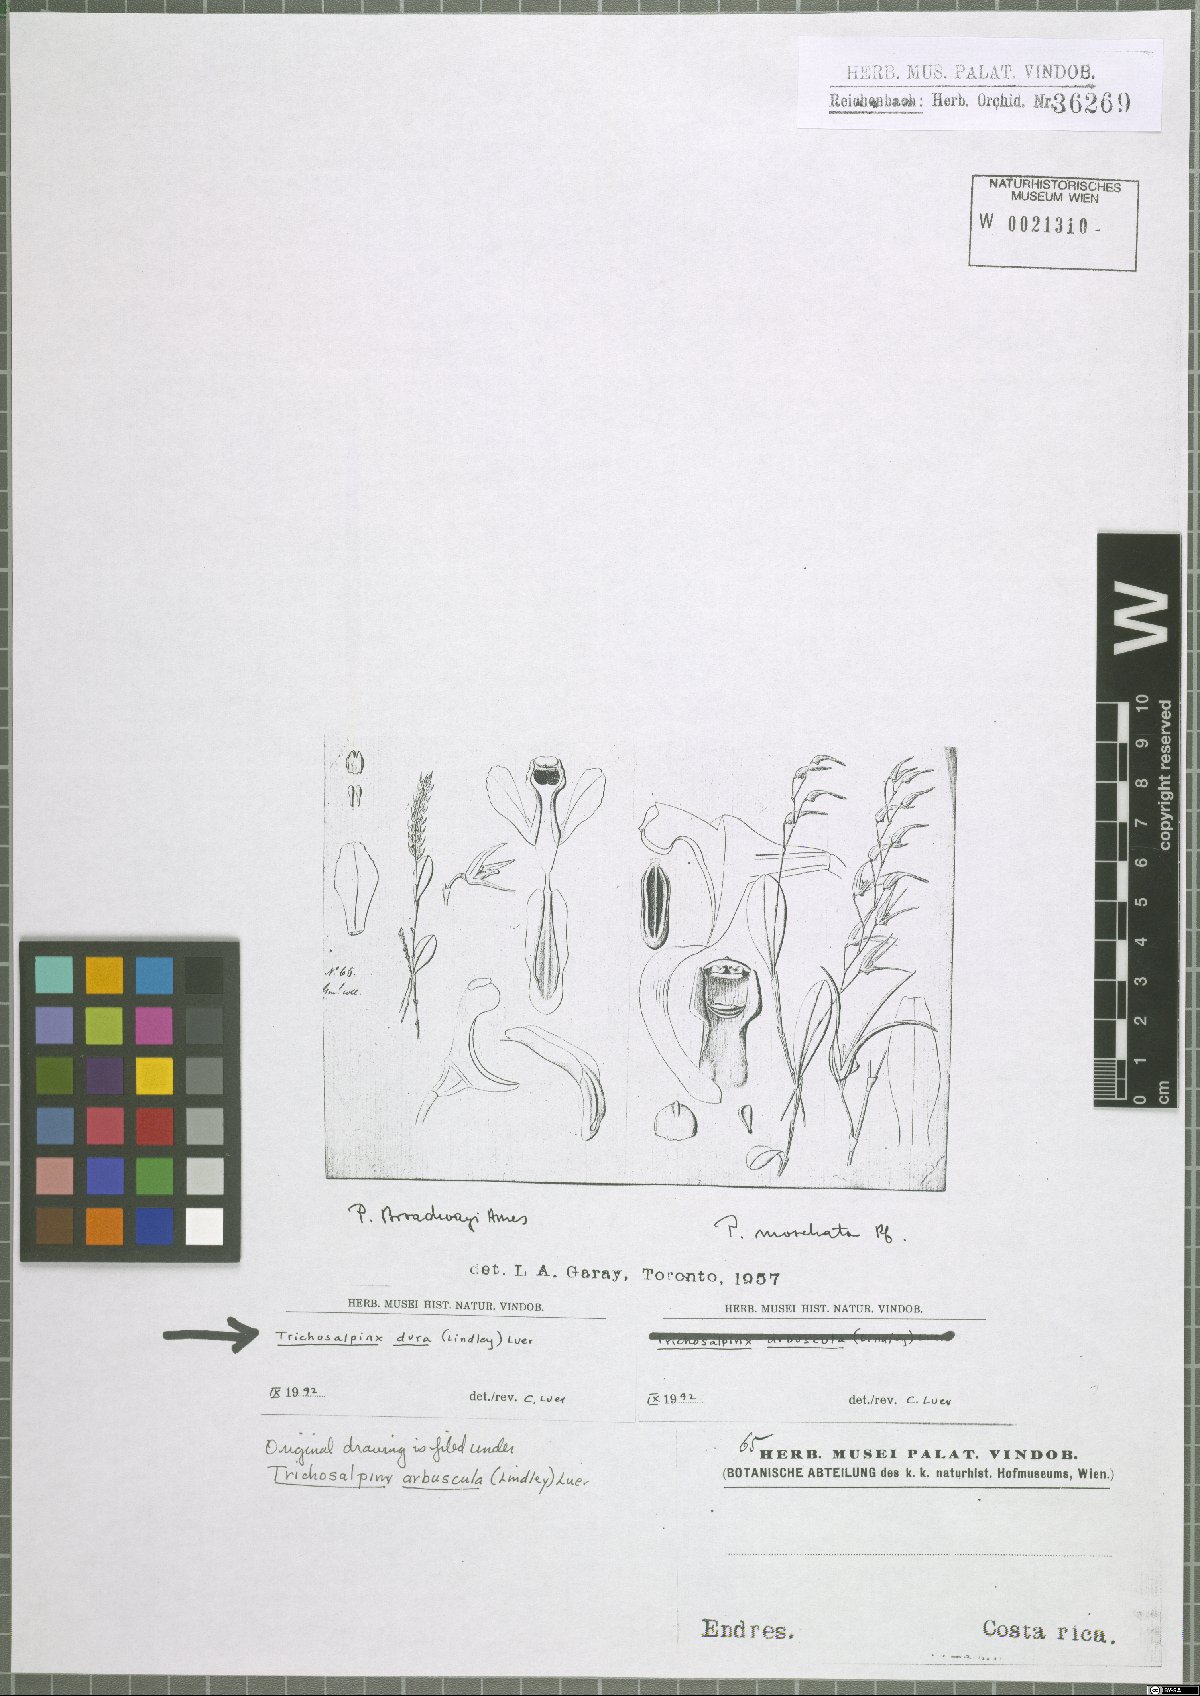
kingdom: Plantae
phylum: Tracheophyta
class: Liliopsida
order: Asparagales
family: Orchidaceae
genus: Trichosalpinx
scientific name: Trichosalpinx dura
